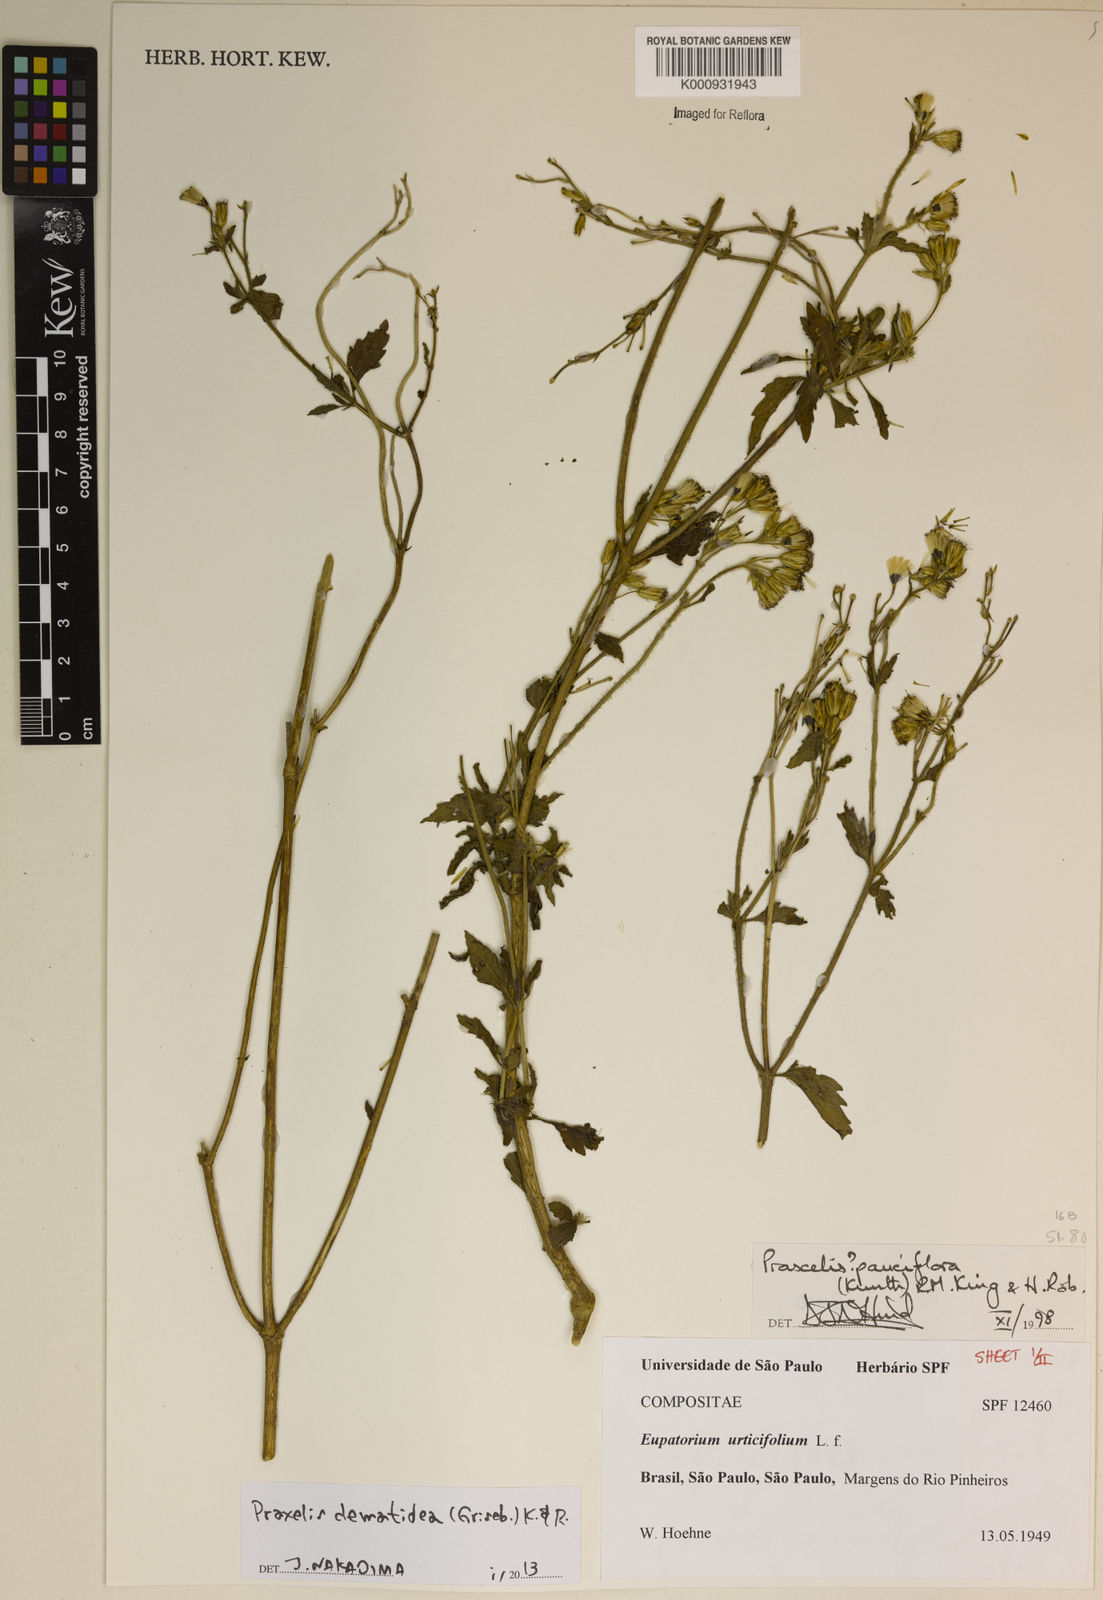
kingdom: Plantae
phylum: Tracheophyta
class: Magnoliopsida
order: Asterales
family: Asteraceae
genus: Praxelis
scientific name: Praxelis clematidea
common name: Praxelis
